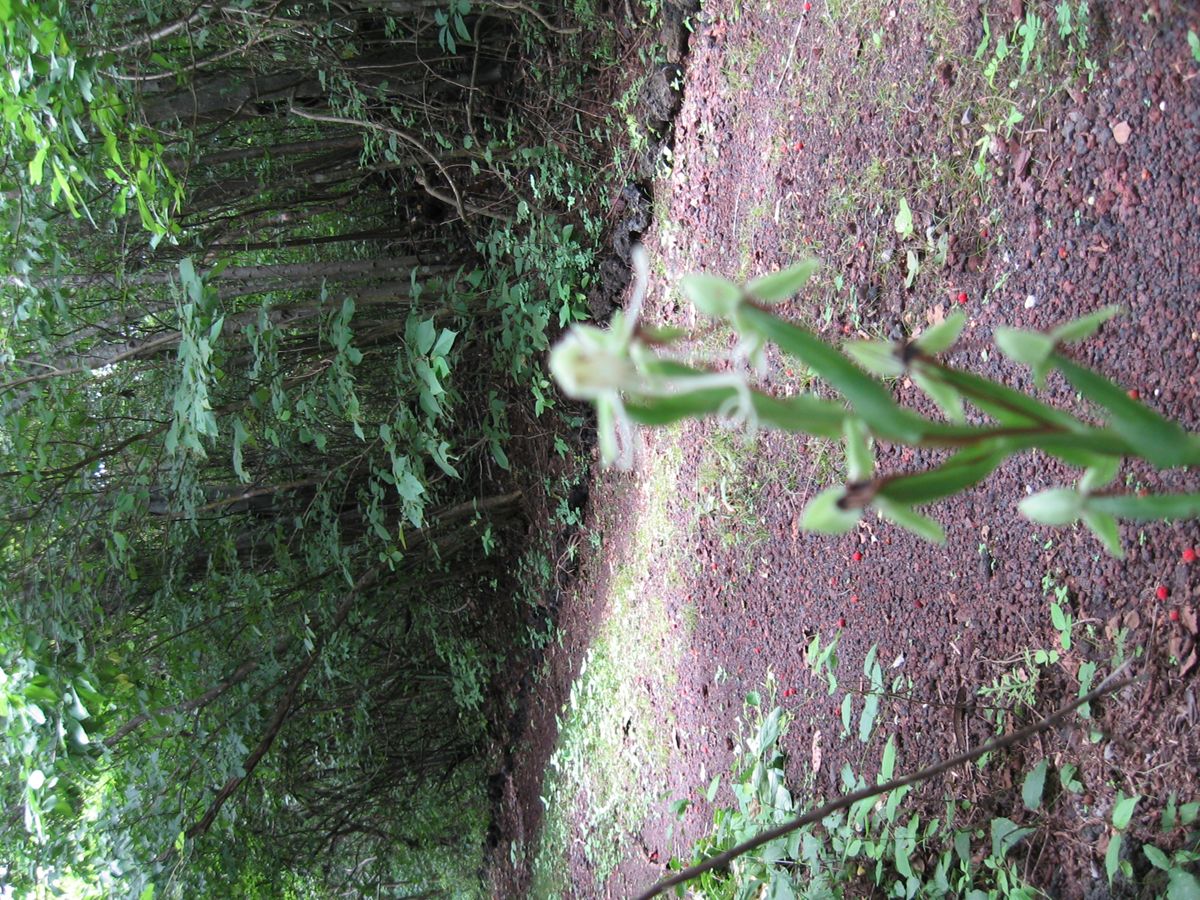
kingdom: Plantae
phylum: Tracheophyta
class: Liliopsida
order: Asparagales
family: Orchidaceae
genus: Habenaria
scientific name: Habenaria
